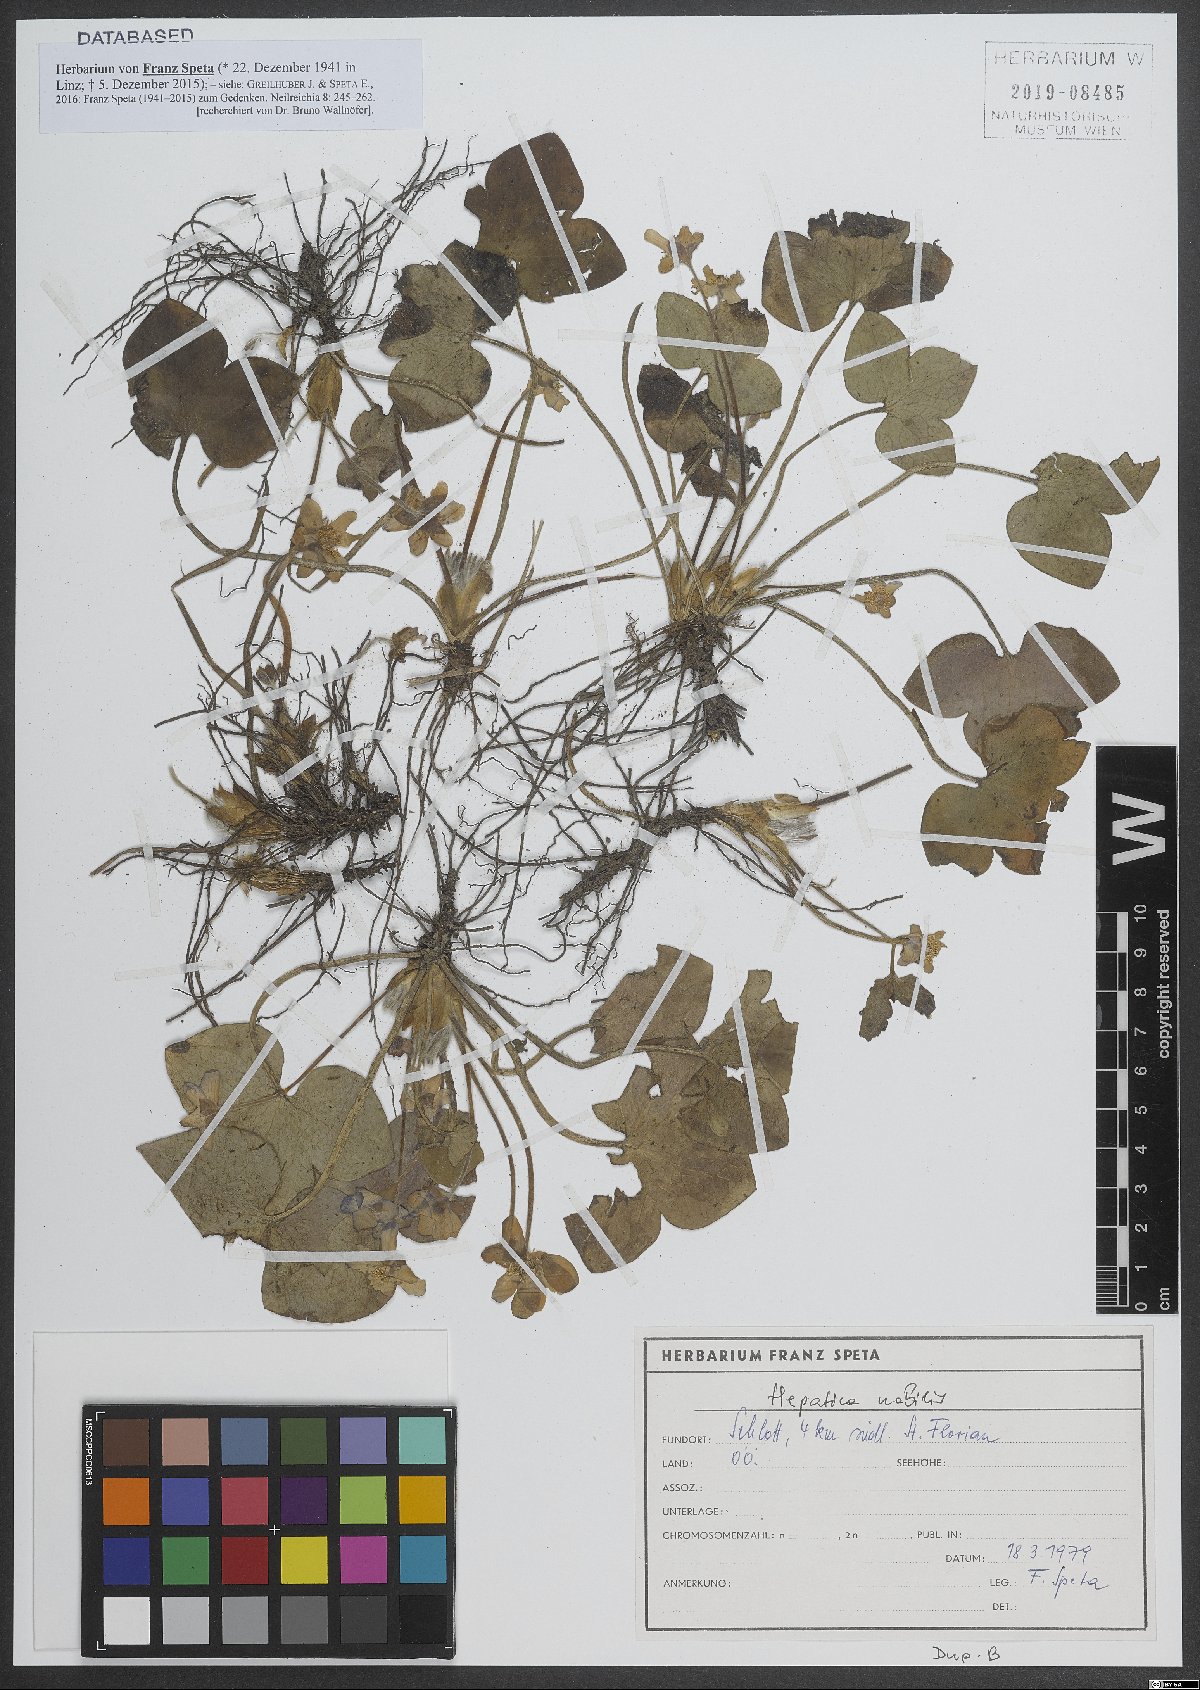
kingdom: Plantae
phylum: Tracheophyta
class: Magnoliopsida
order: Ranunculales
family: Ranunculaceae
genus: Hepatica
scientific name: Hepatica nobilis
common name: Liverleaf
